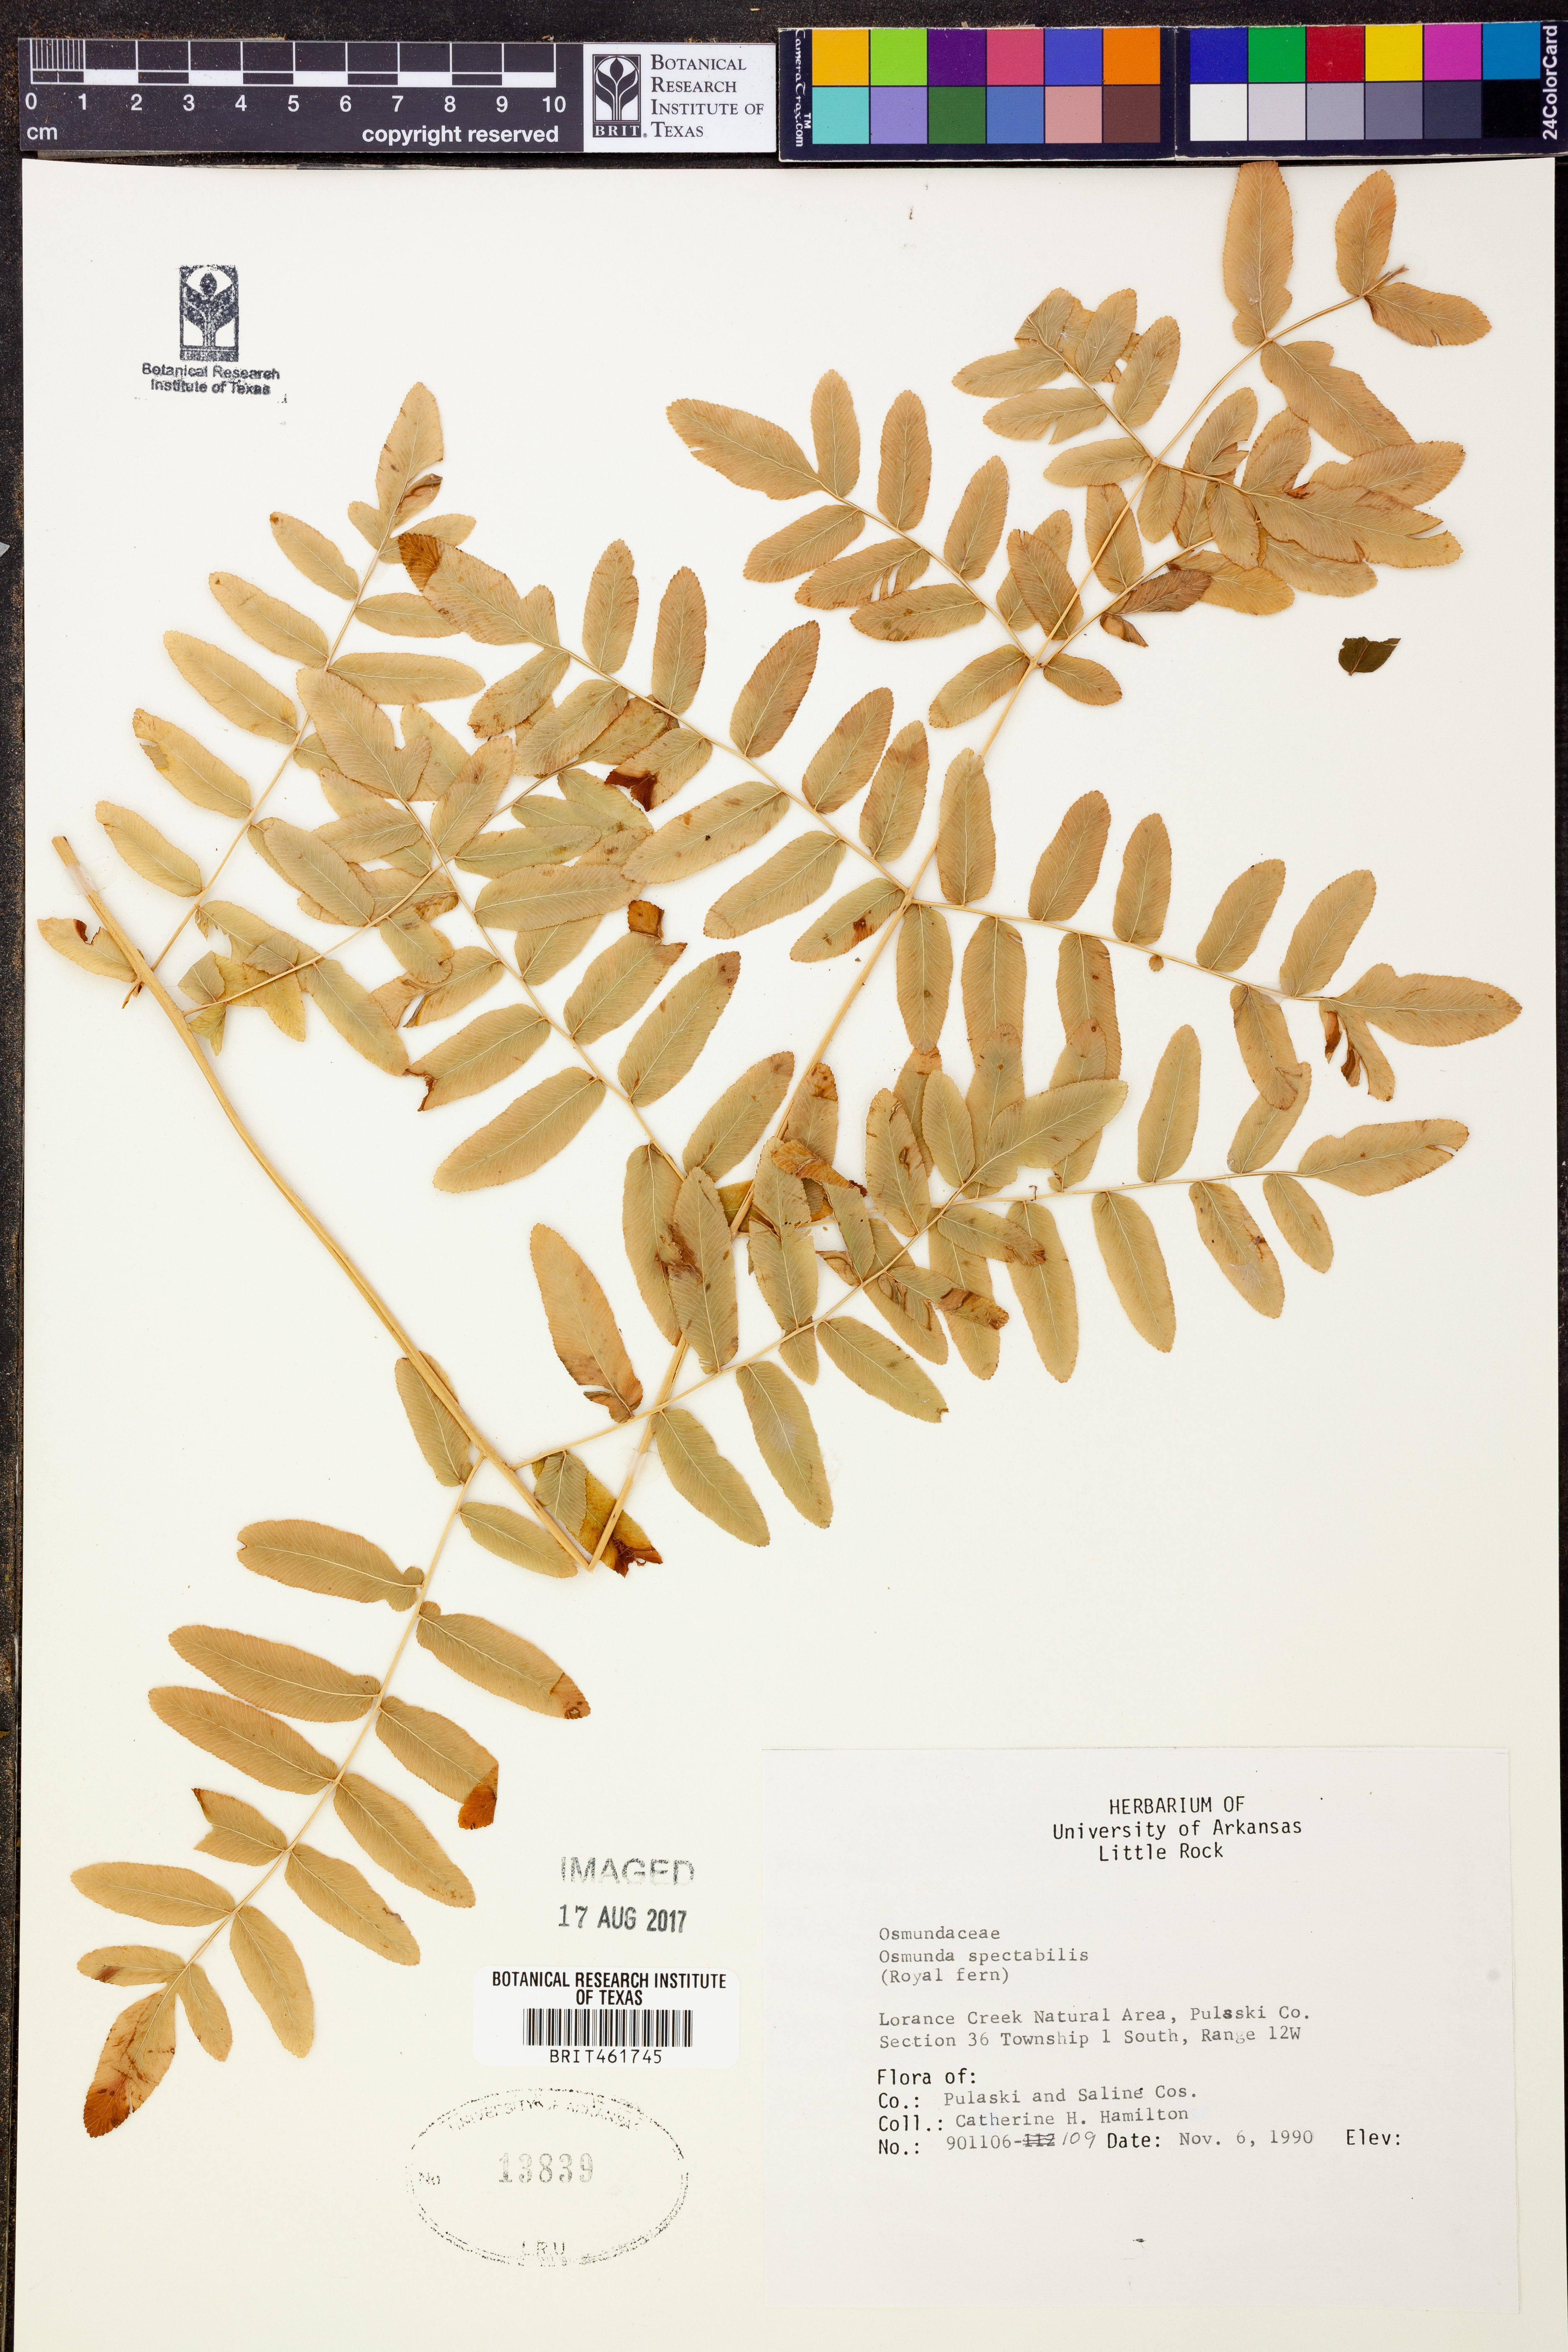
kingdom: Plantae
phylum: Tracheophyta
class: Polypodiopsida
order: Osmundales
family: Osmundaceae
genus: Osmunda
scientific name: Osmunda spectabilis
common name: American royal fern
